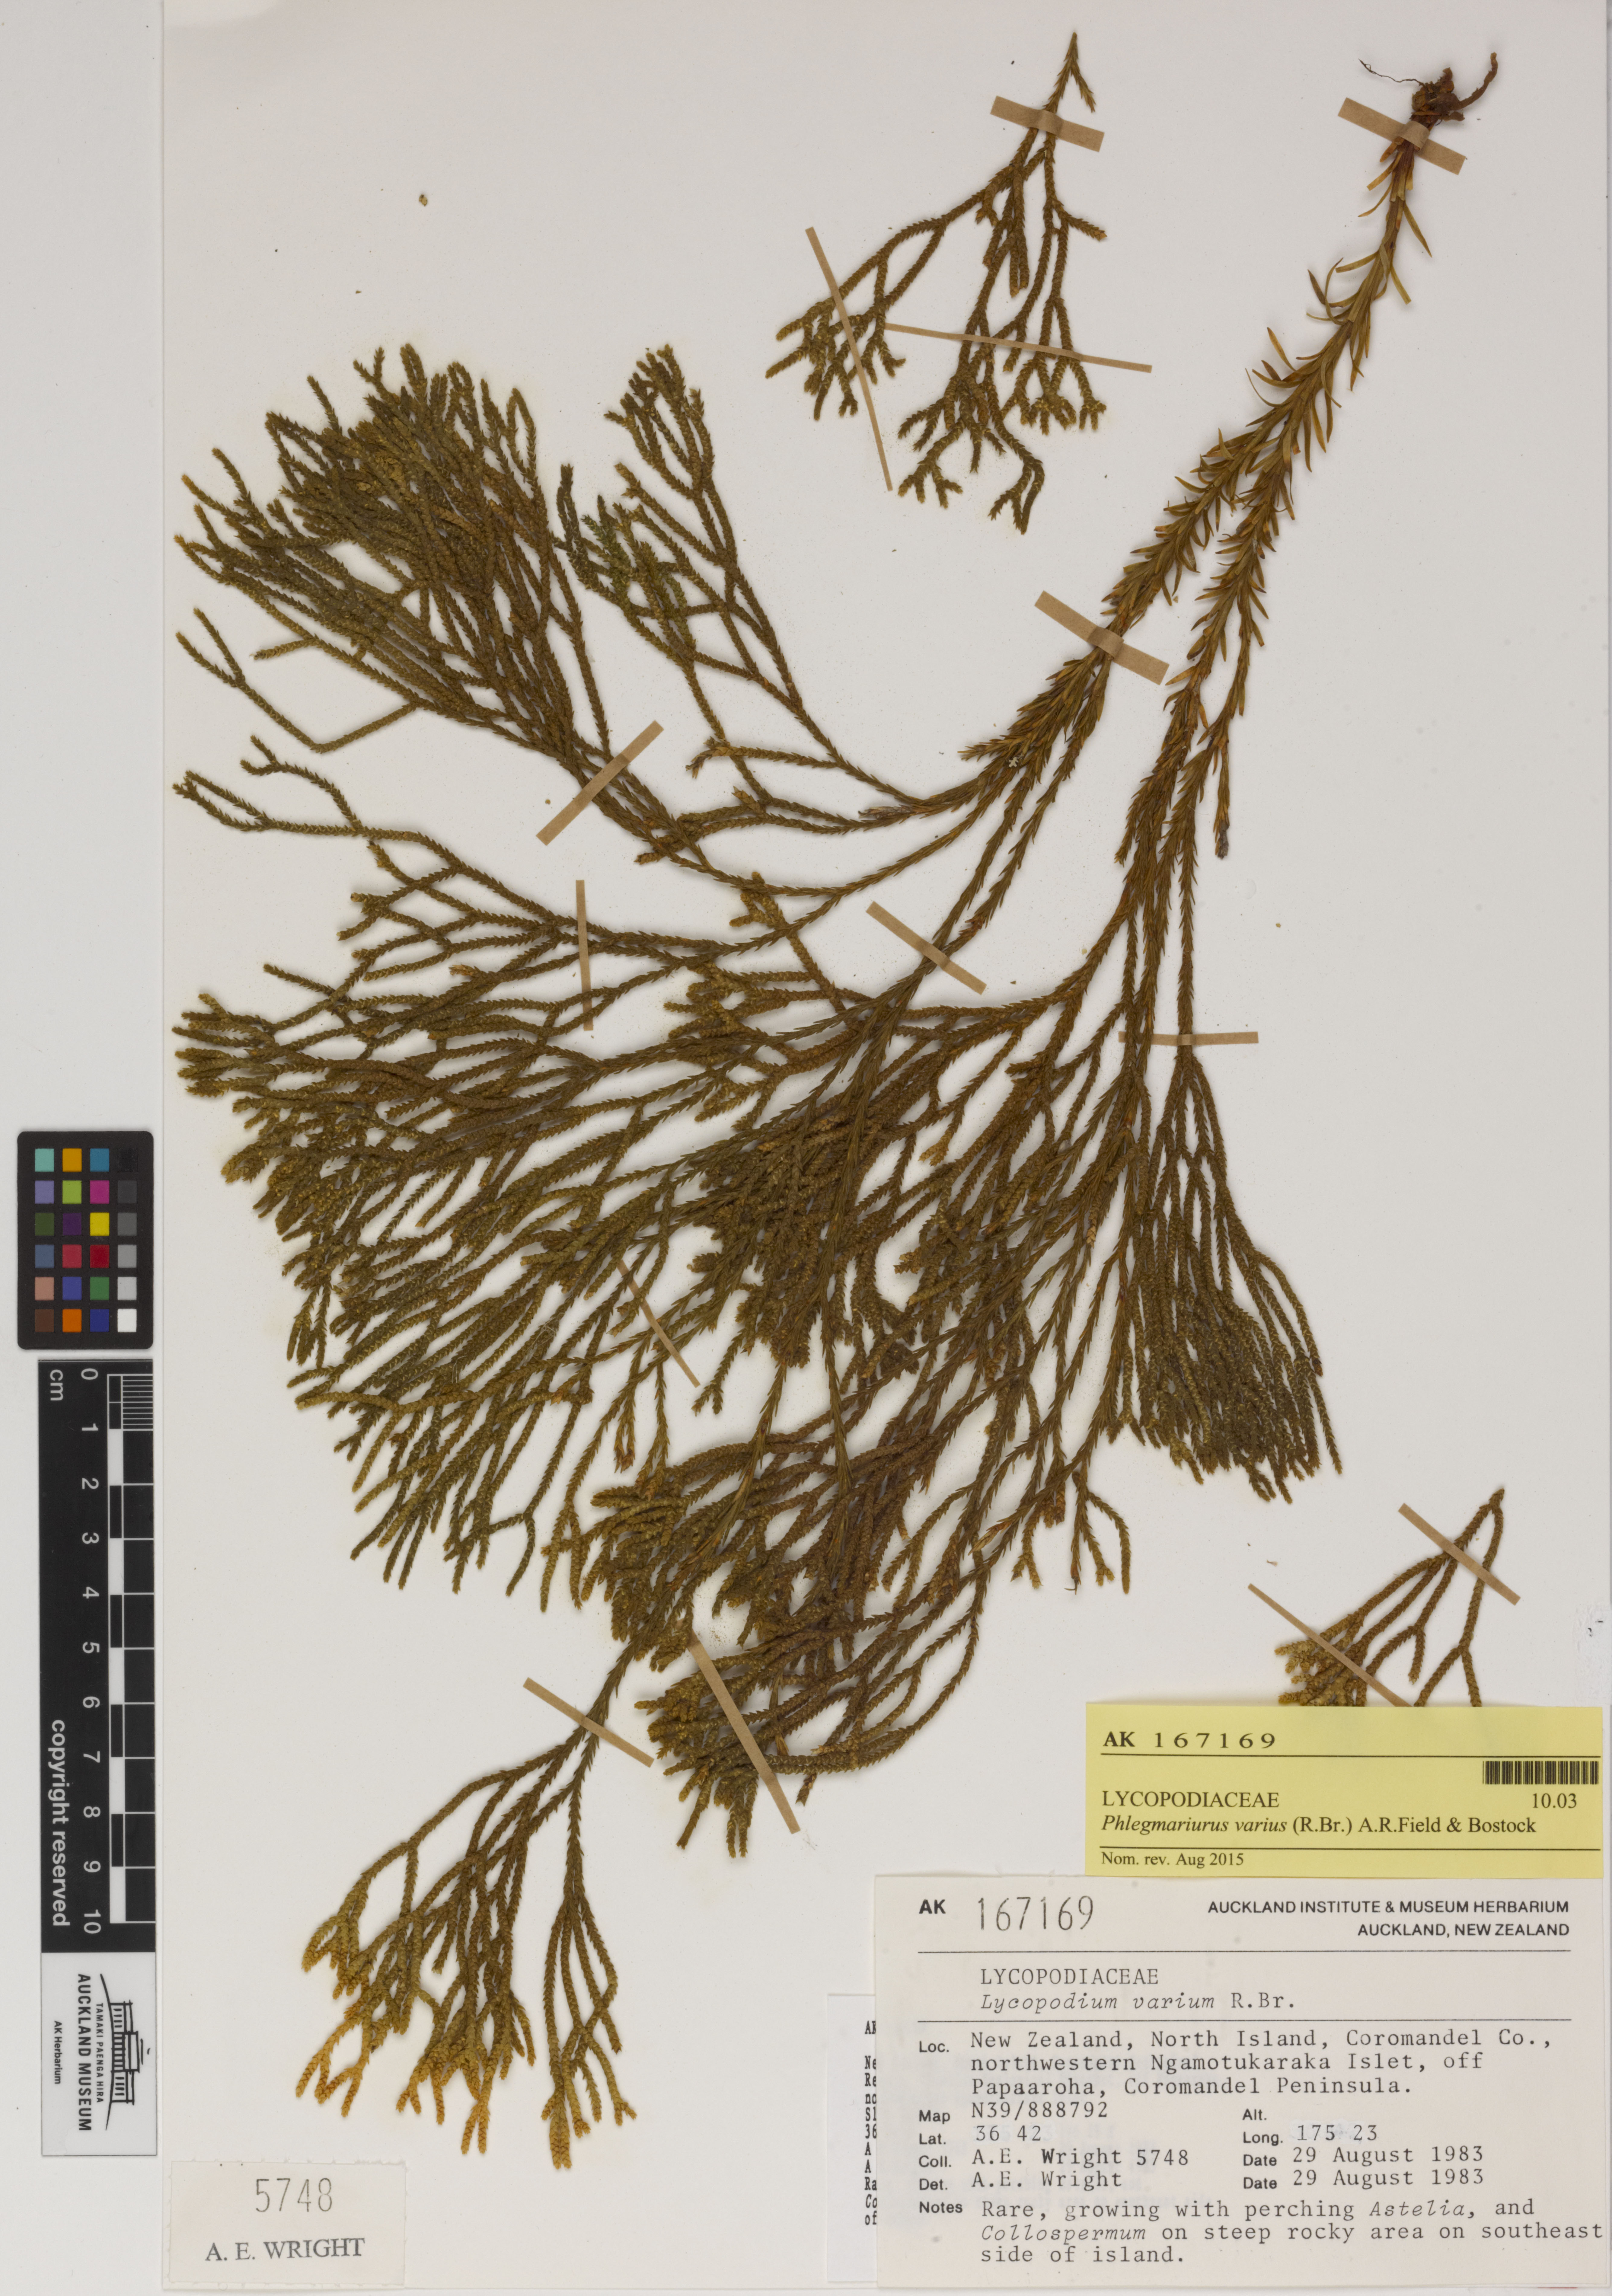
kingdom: Plantae
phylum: Tracheophyta
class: Lycopodiopsida
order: Lycopodiales
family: Lycopodiaceae
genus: Phlegmariurus
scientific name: Phlegmariurus billardierei
